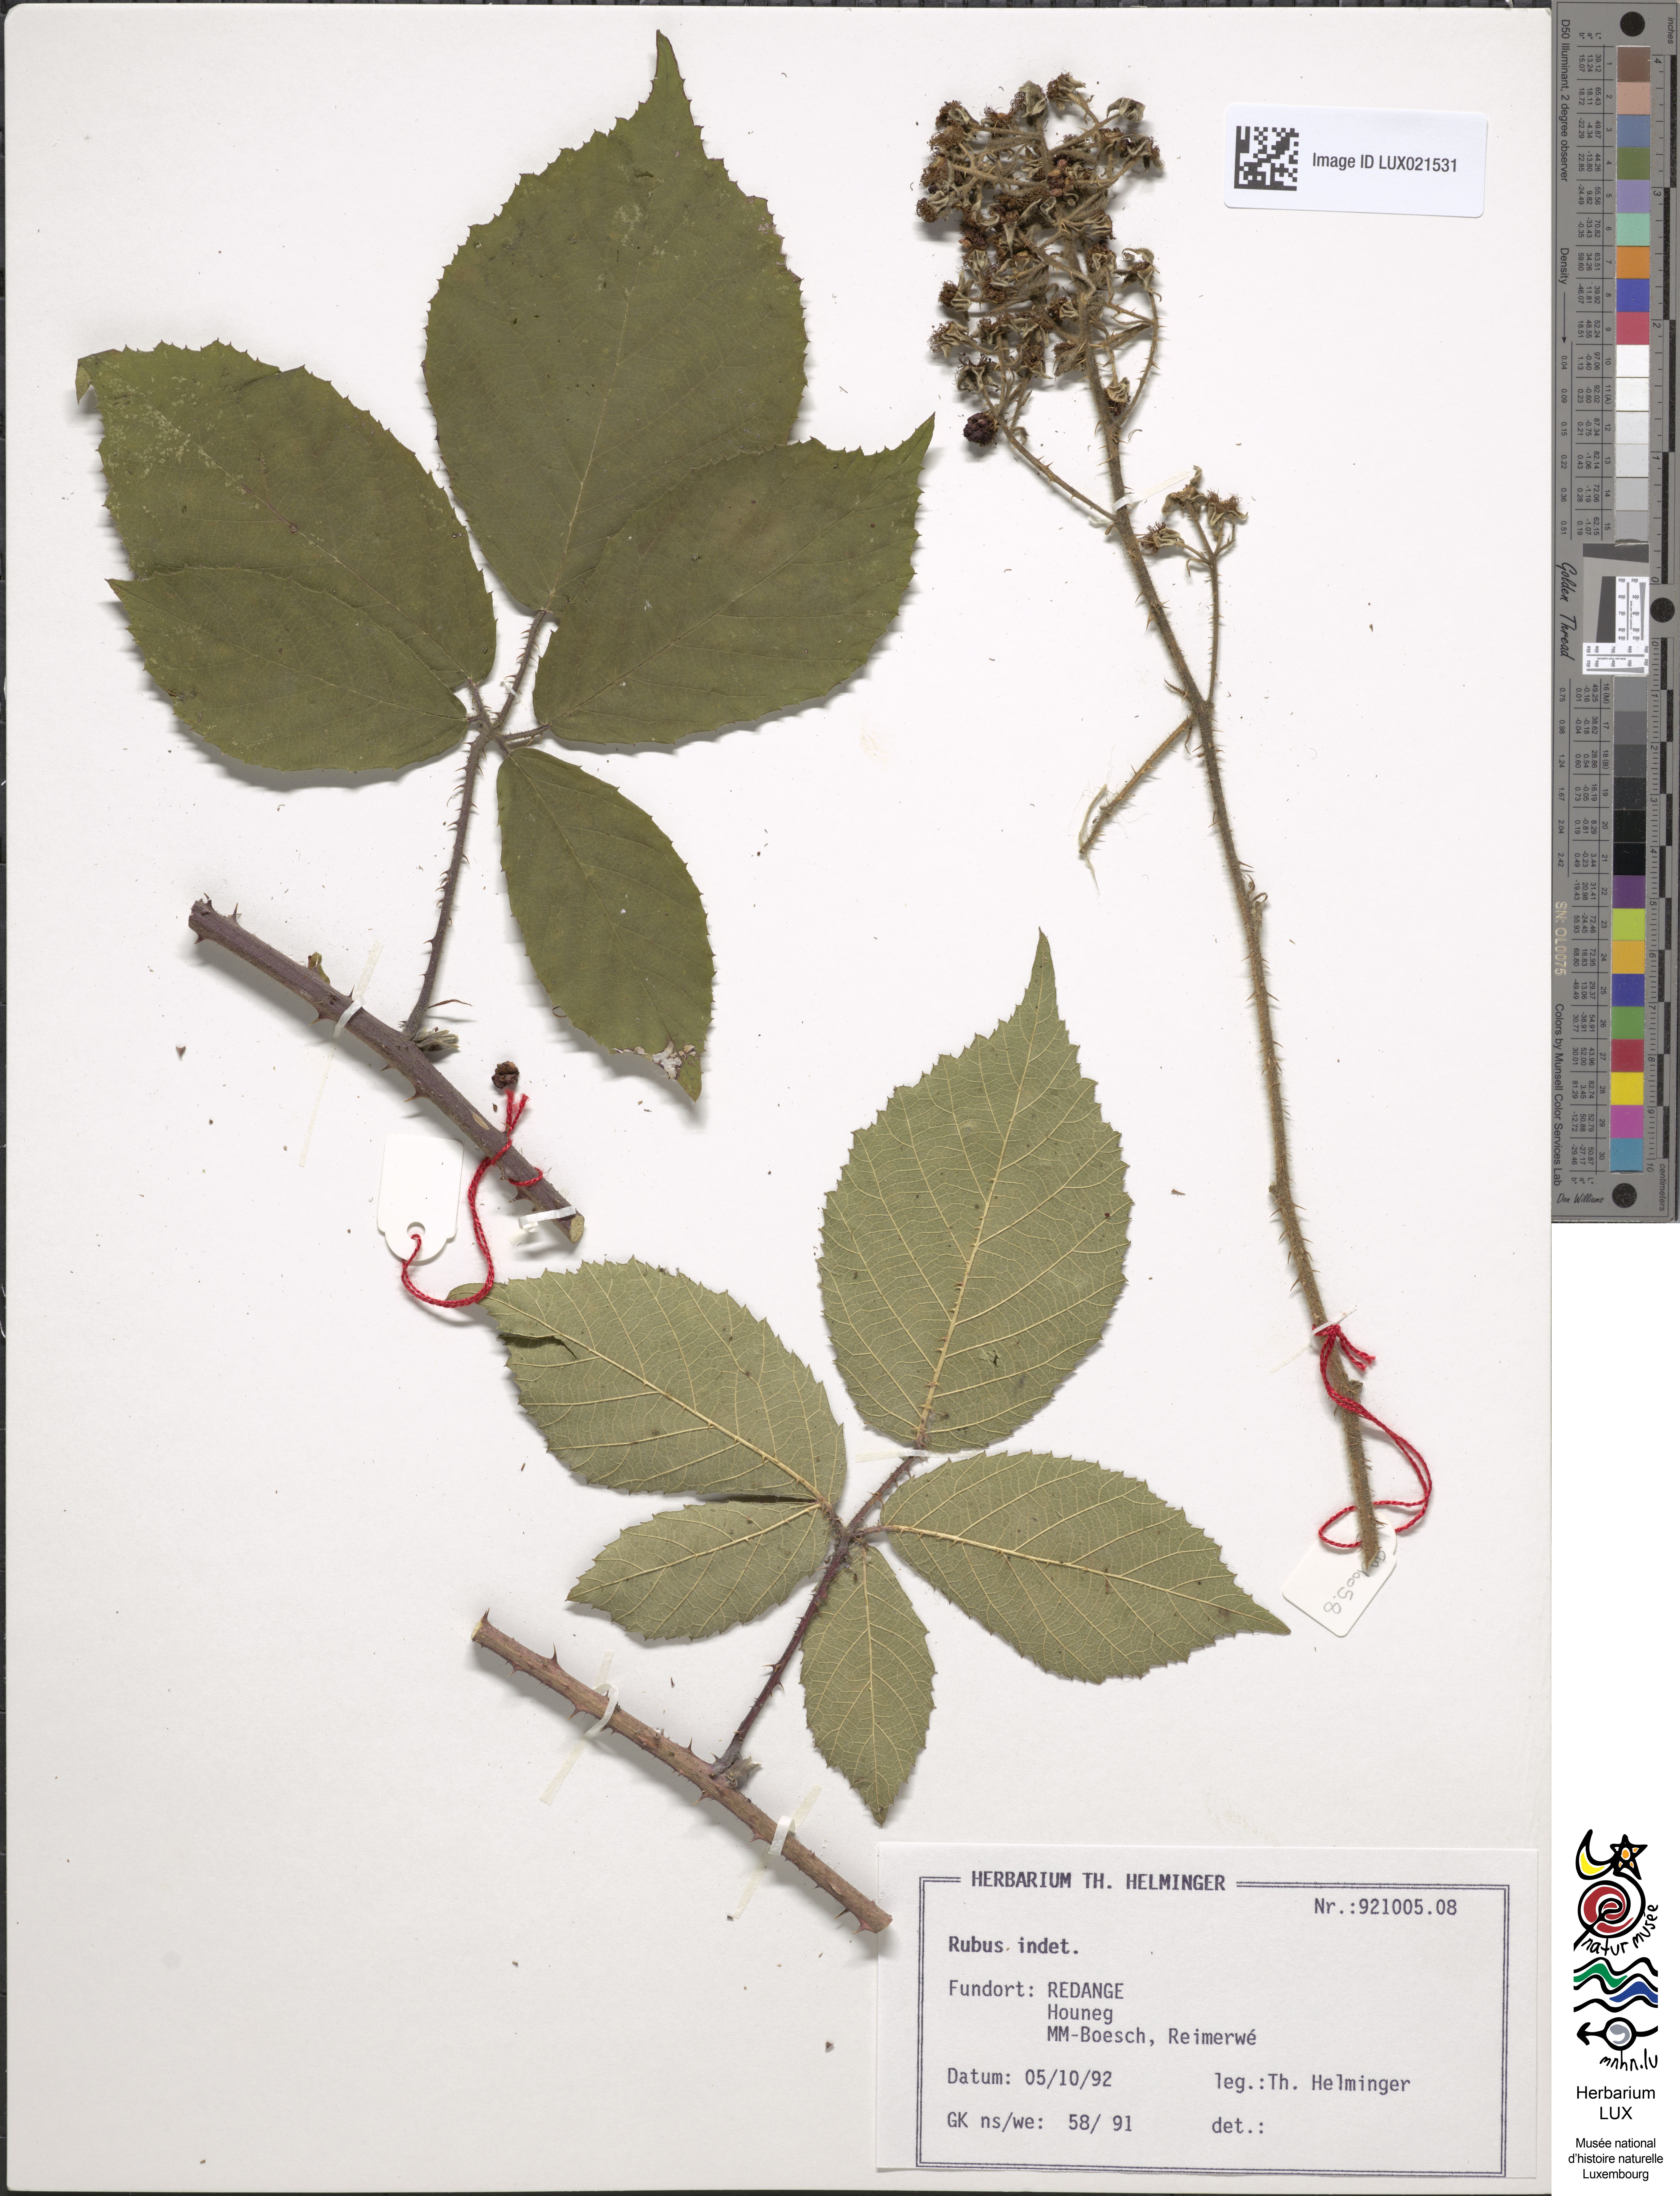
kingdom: Plantae
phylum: Tracheophyta
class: Magnoliopsida
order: Rosales
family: Rosaceae
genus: Rubus
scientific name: Rubus
